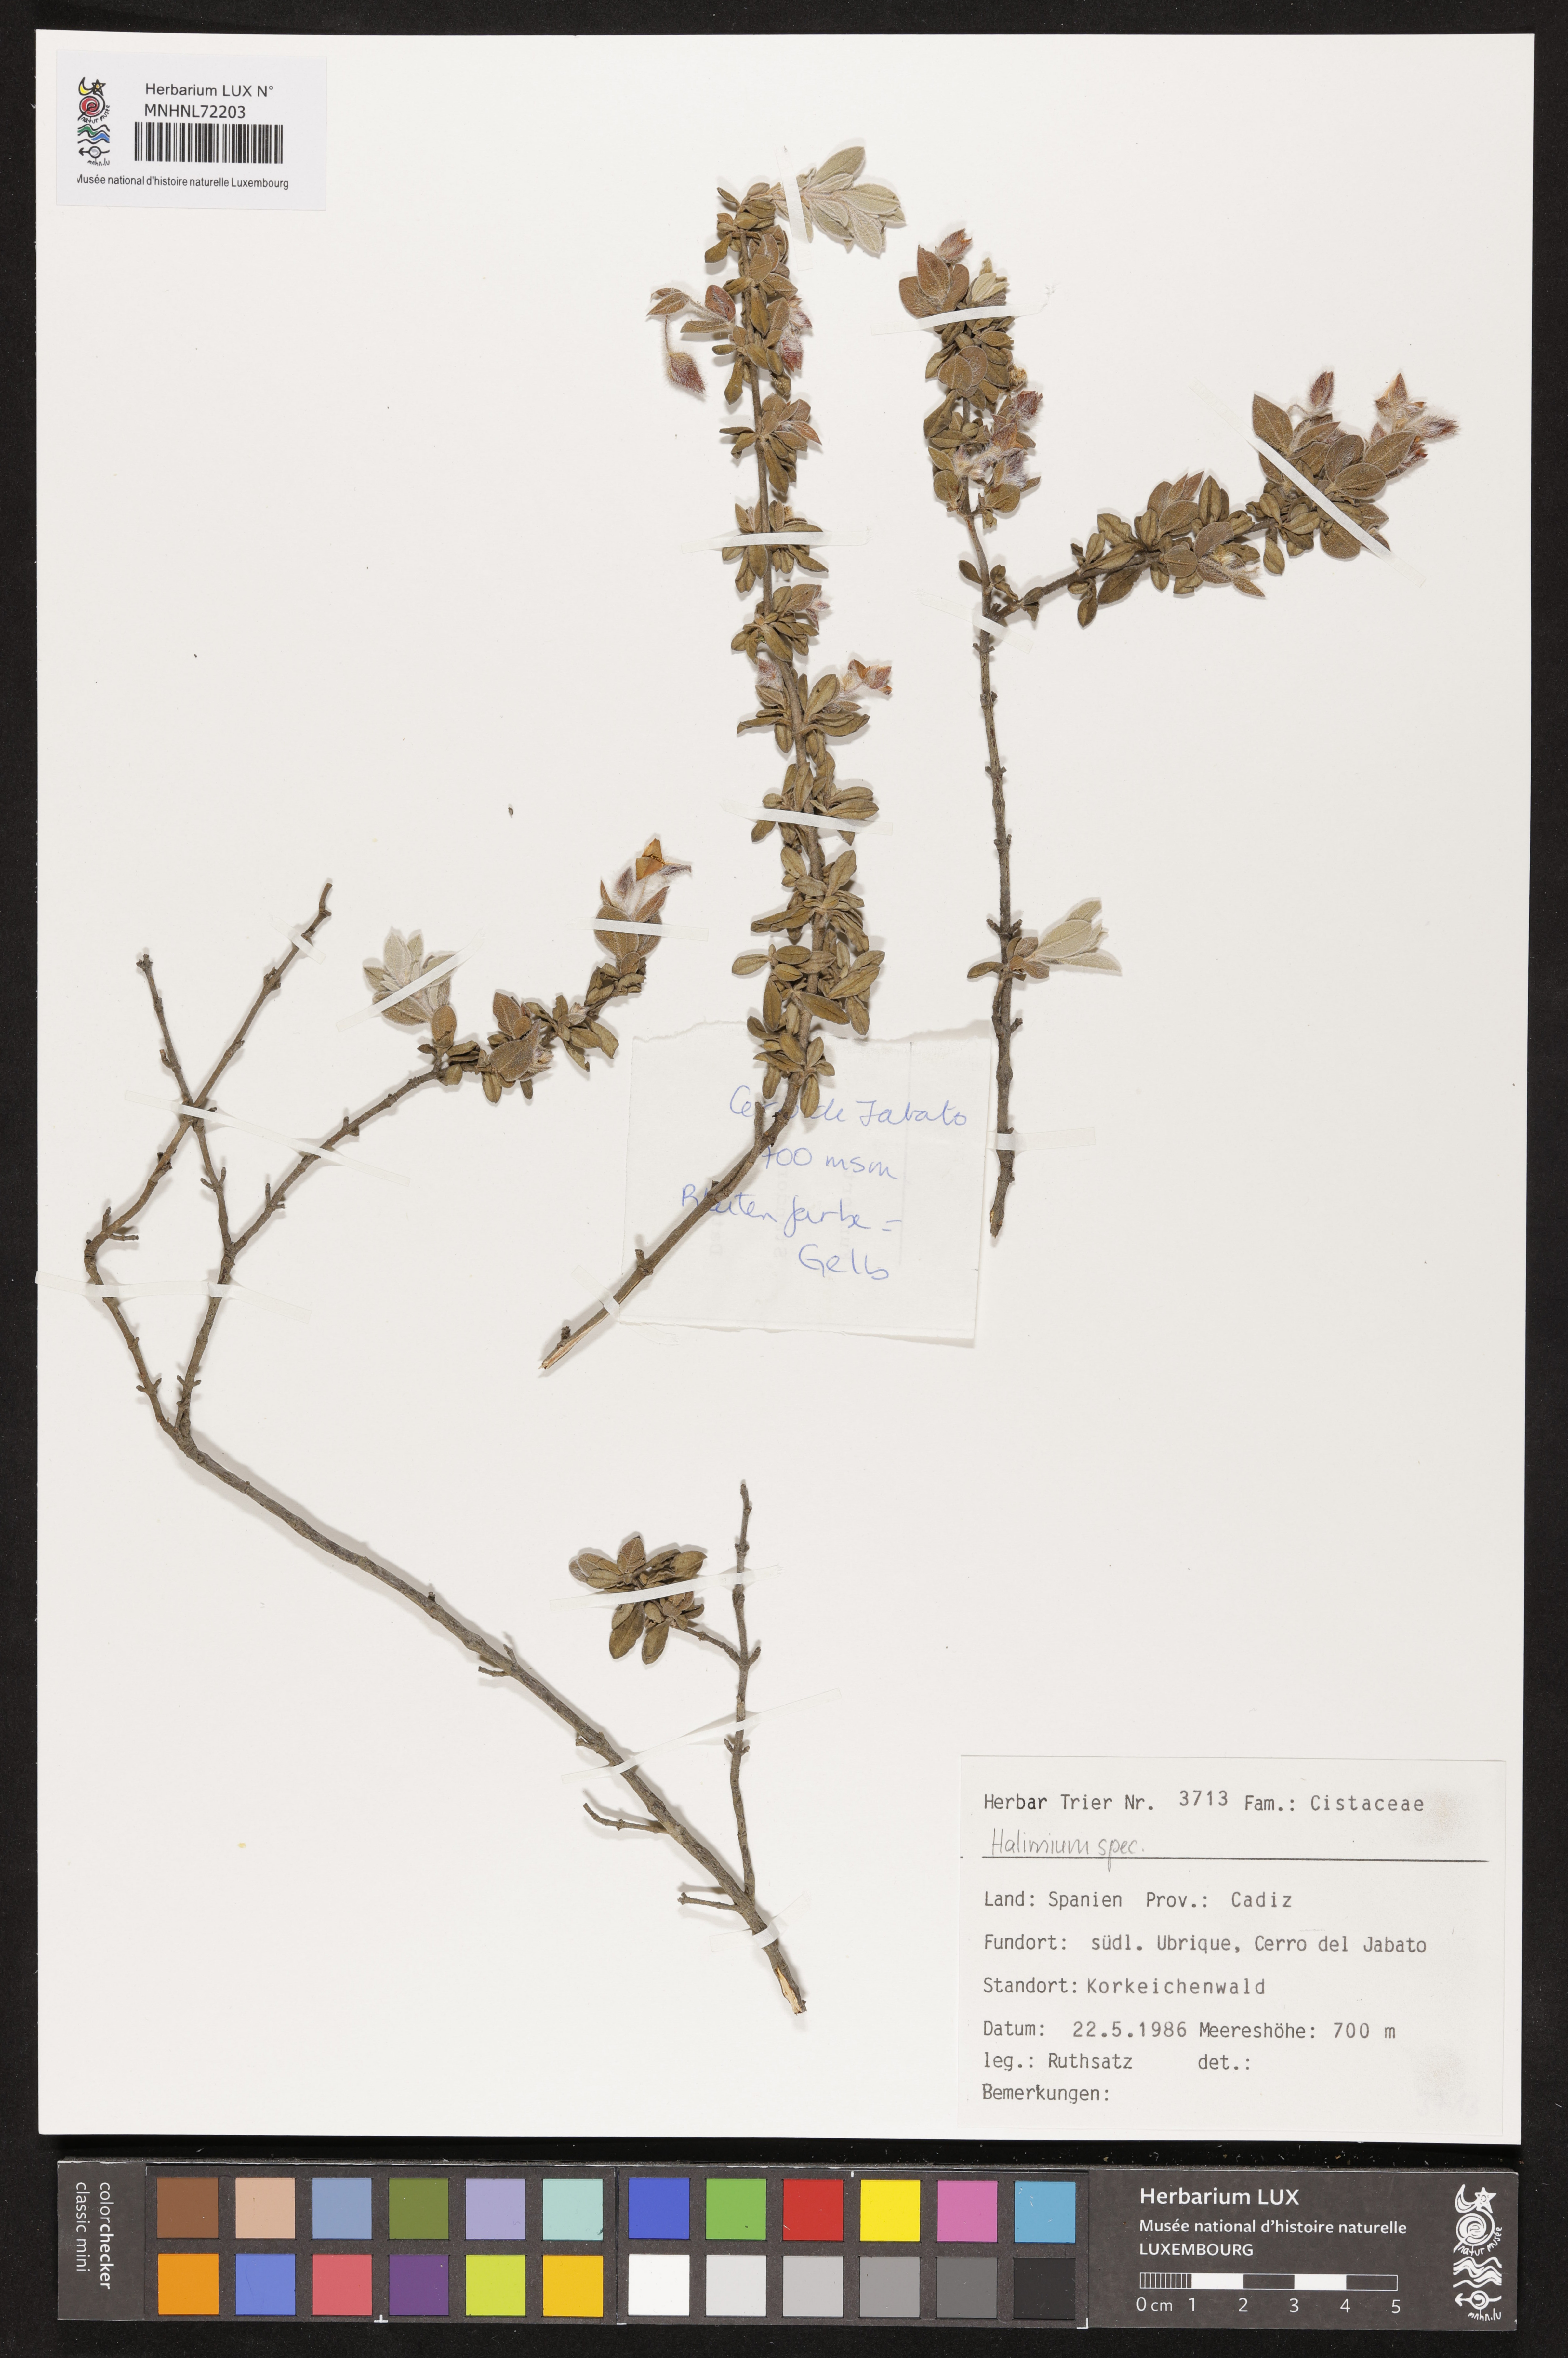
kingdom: Plantae
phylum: Tracheophyta
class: Magnoliopsida
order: Malvales
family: Cistaceae
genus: Halimium
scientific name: Halimium
